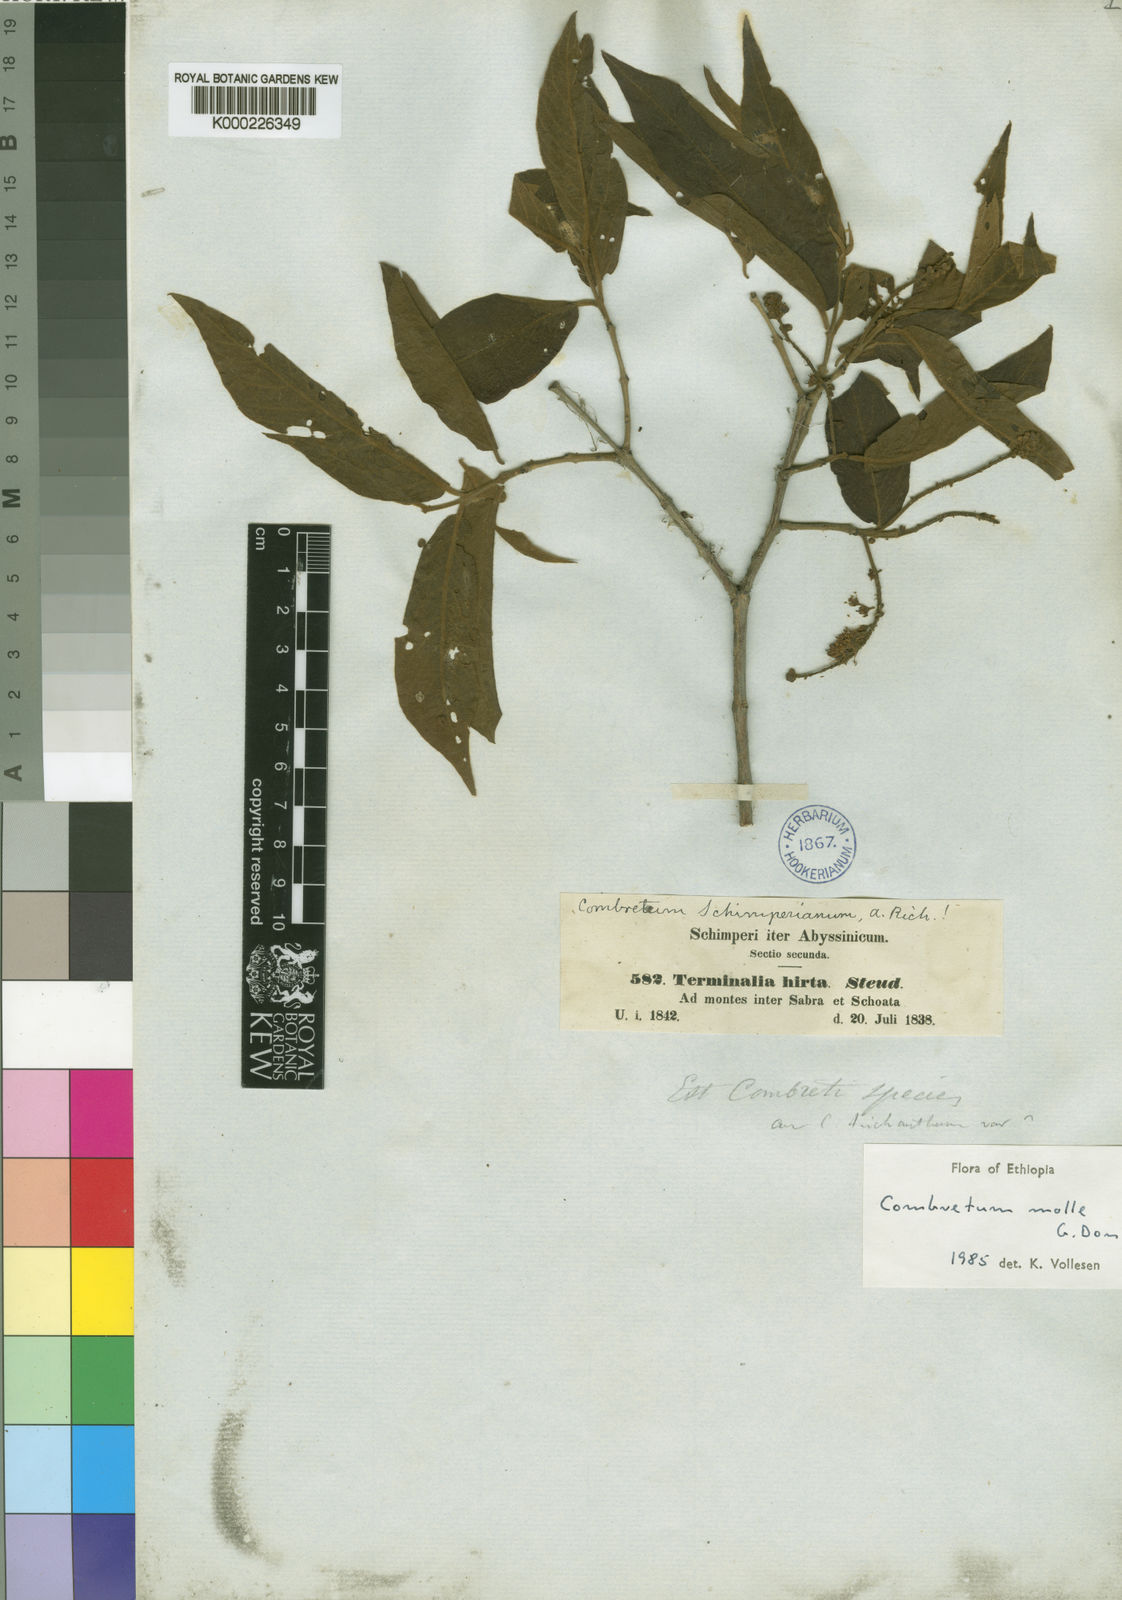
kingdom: Plantae
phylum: Tracheophyta
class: Magnoliopsida
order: Myrtales
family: Combretaceae
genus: Combretum
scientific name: Combretum molle
